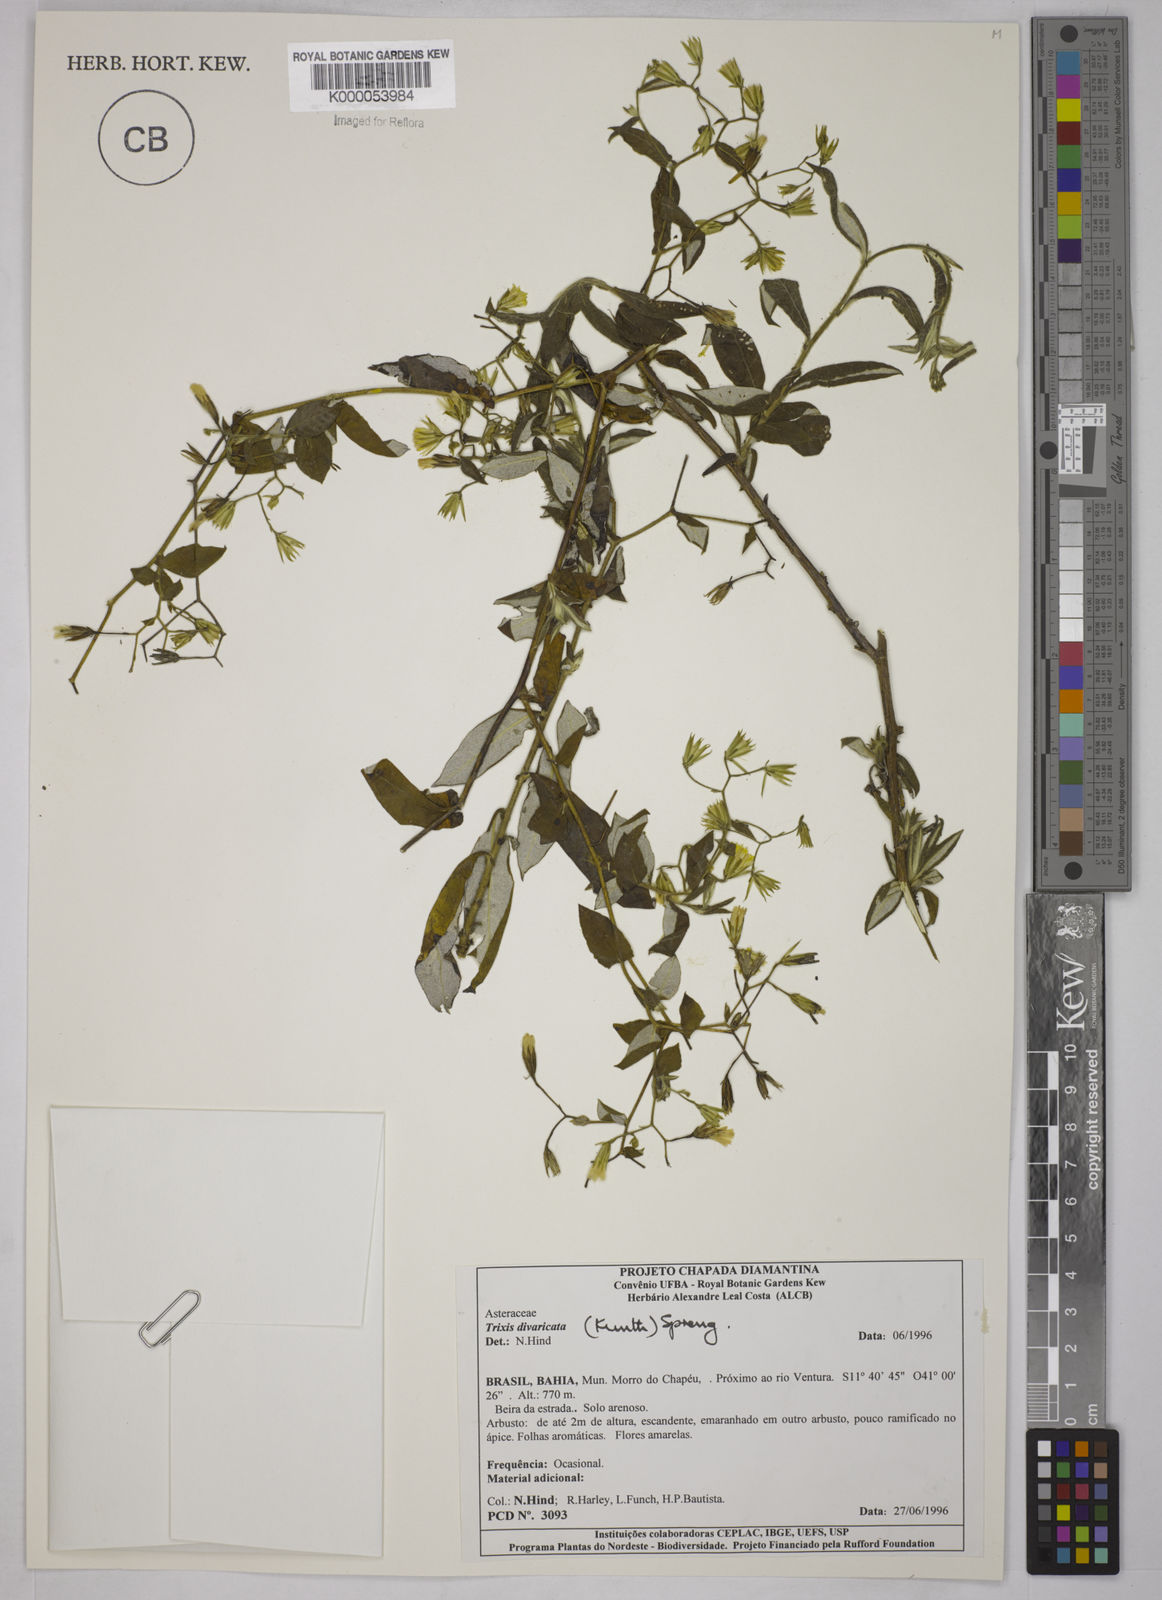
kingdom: Plantae
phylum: Tracheophyta
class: Magnoliopsida
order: Asterales
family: Asteraceae
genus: Trixis
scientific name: Trixis vauthieri
